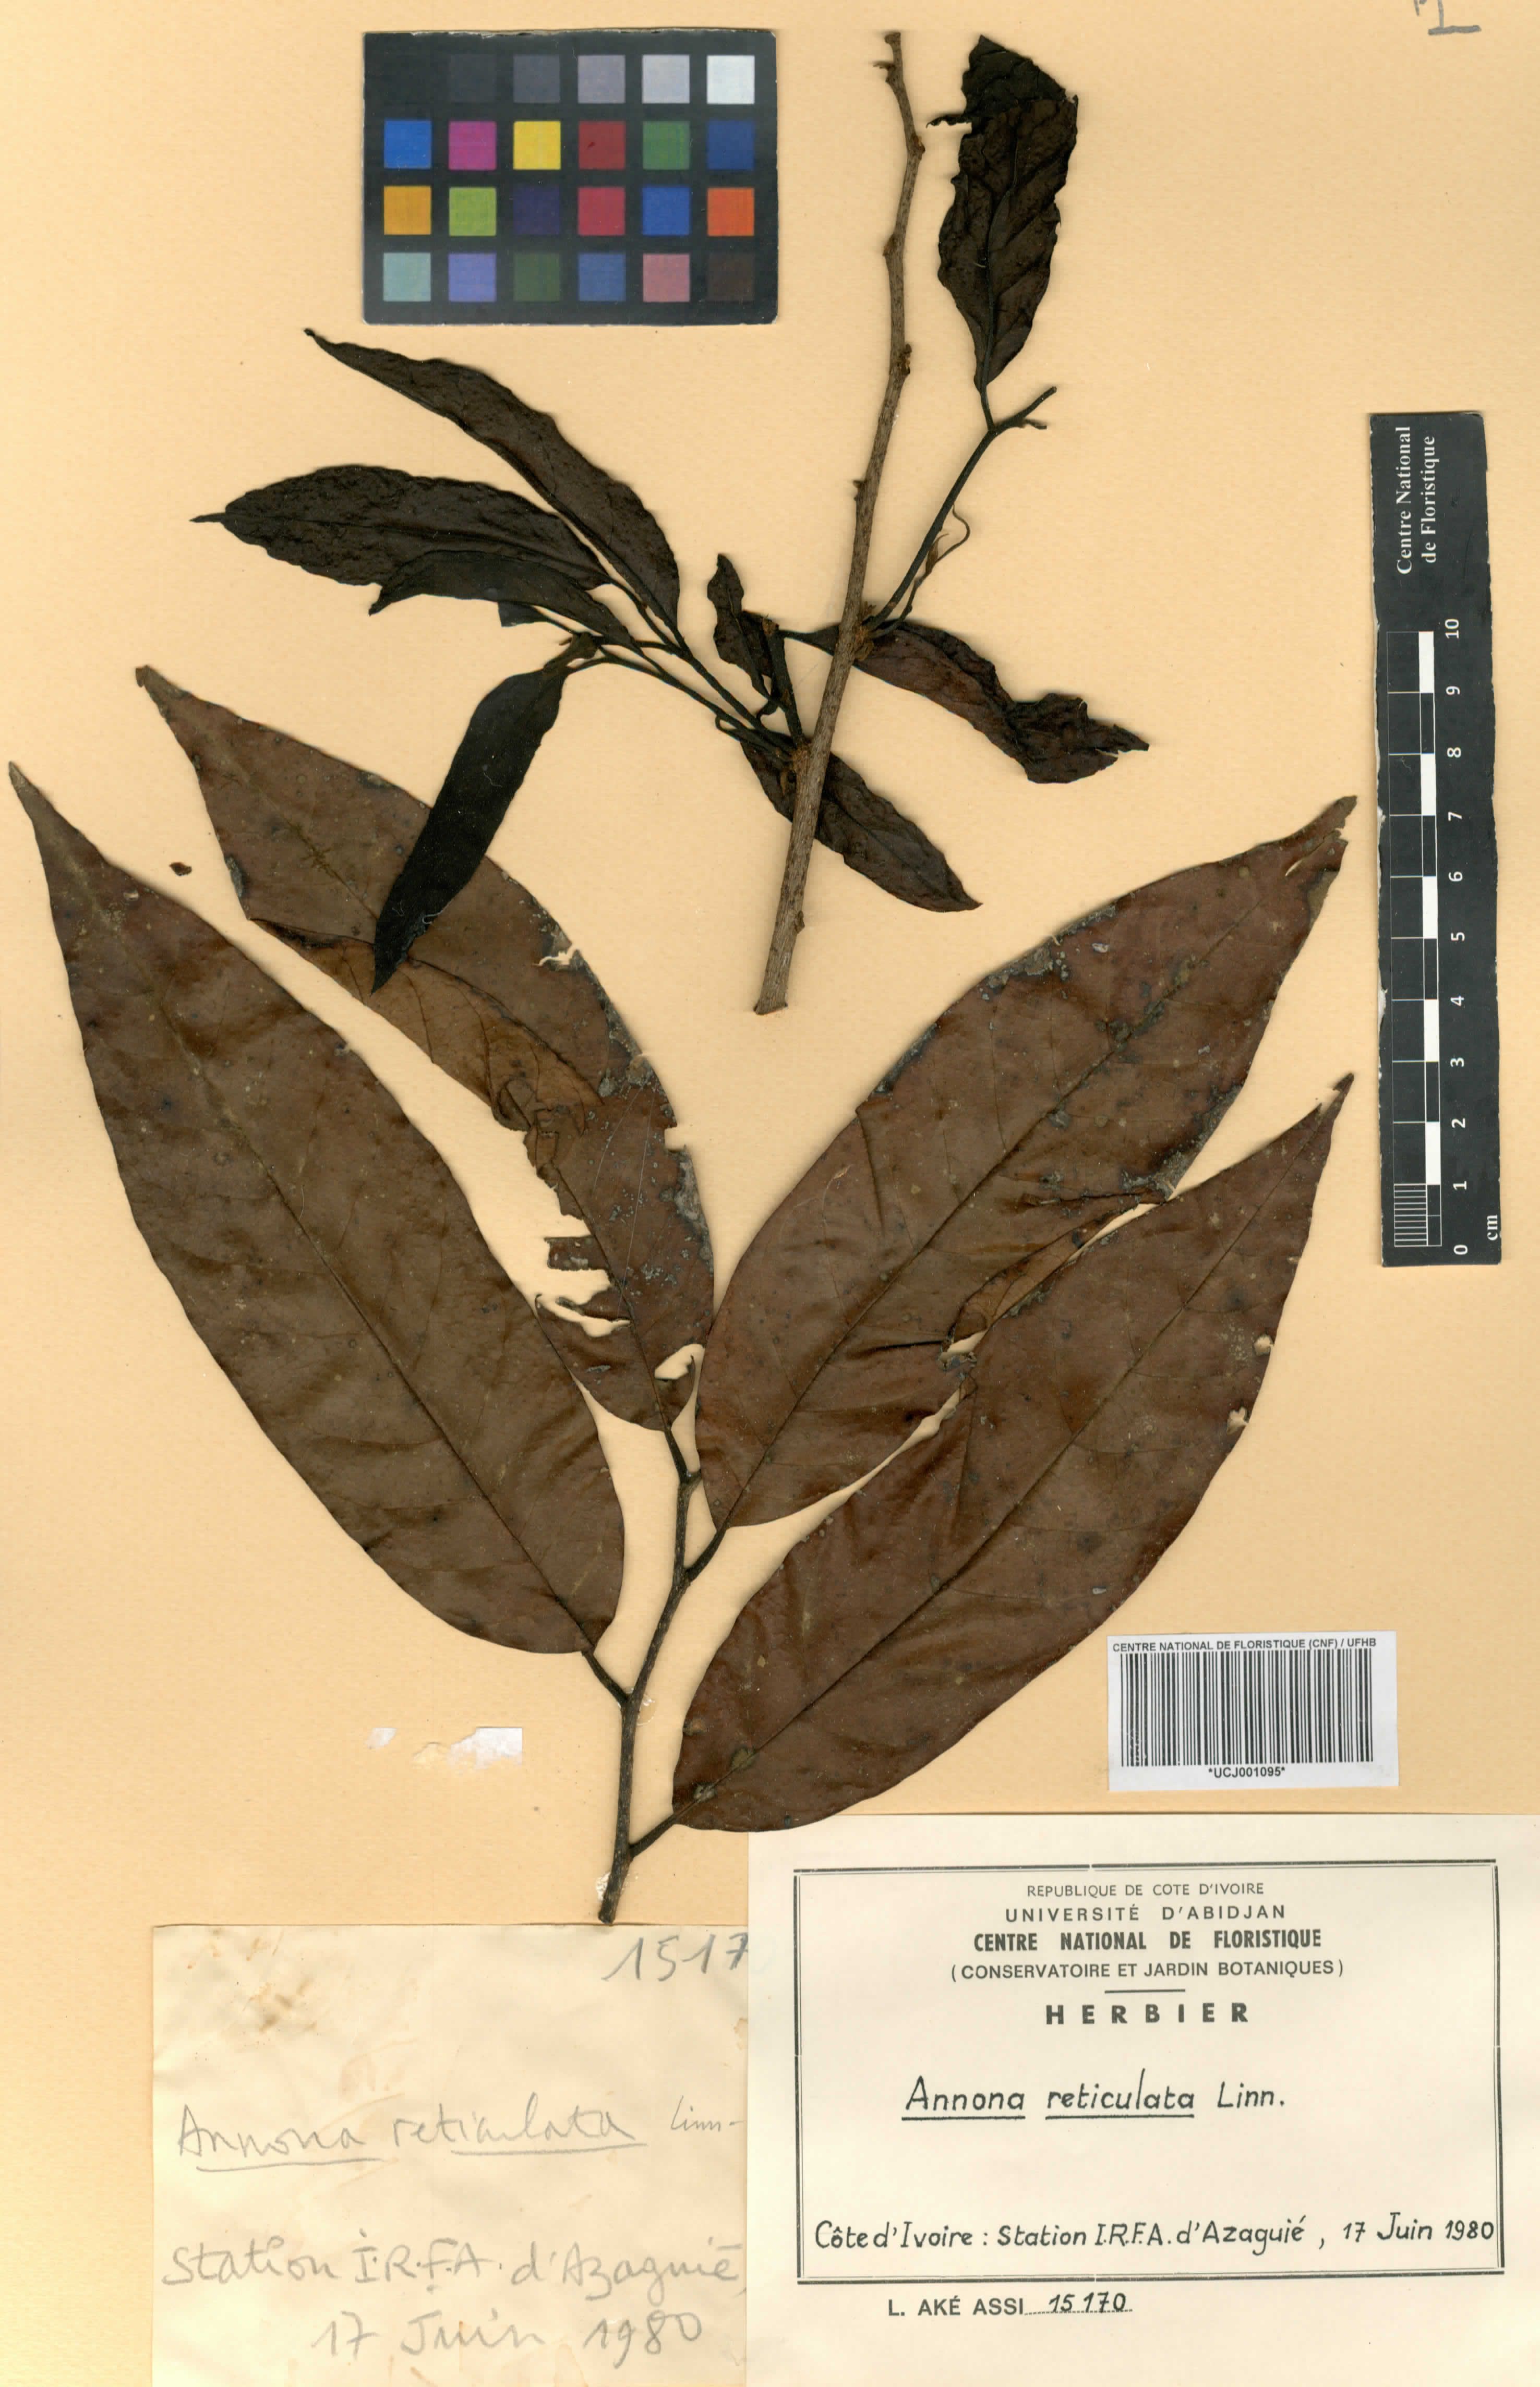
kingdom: Plantae
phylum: Tracheophyta
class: Magnoliopsida
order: Magnoliales
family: Annonaceae
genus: Annona
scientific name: Annona reticulata
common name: Custard apple
